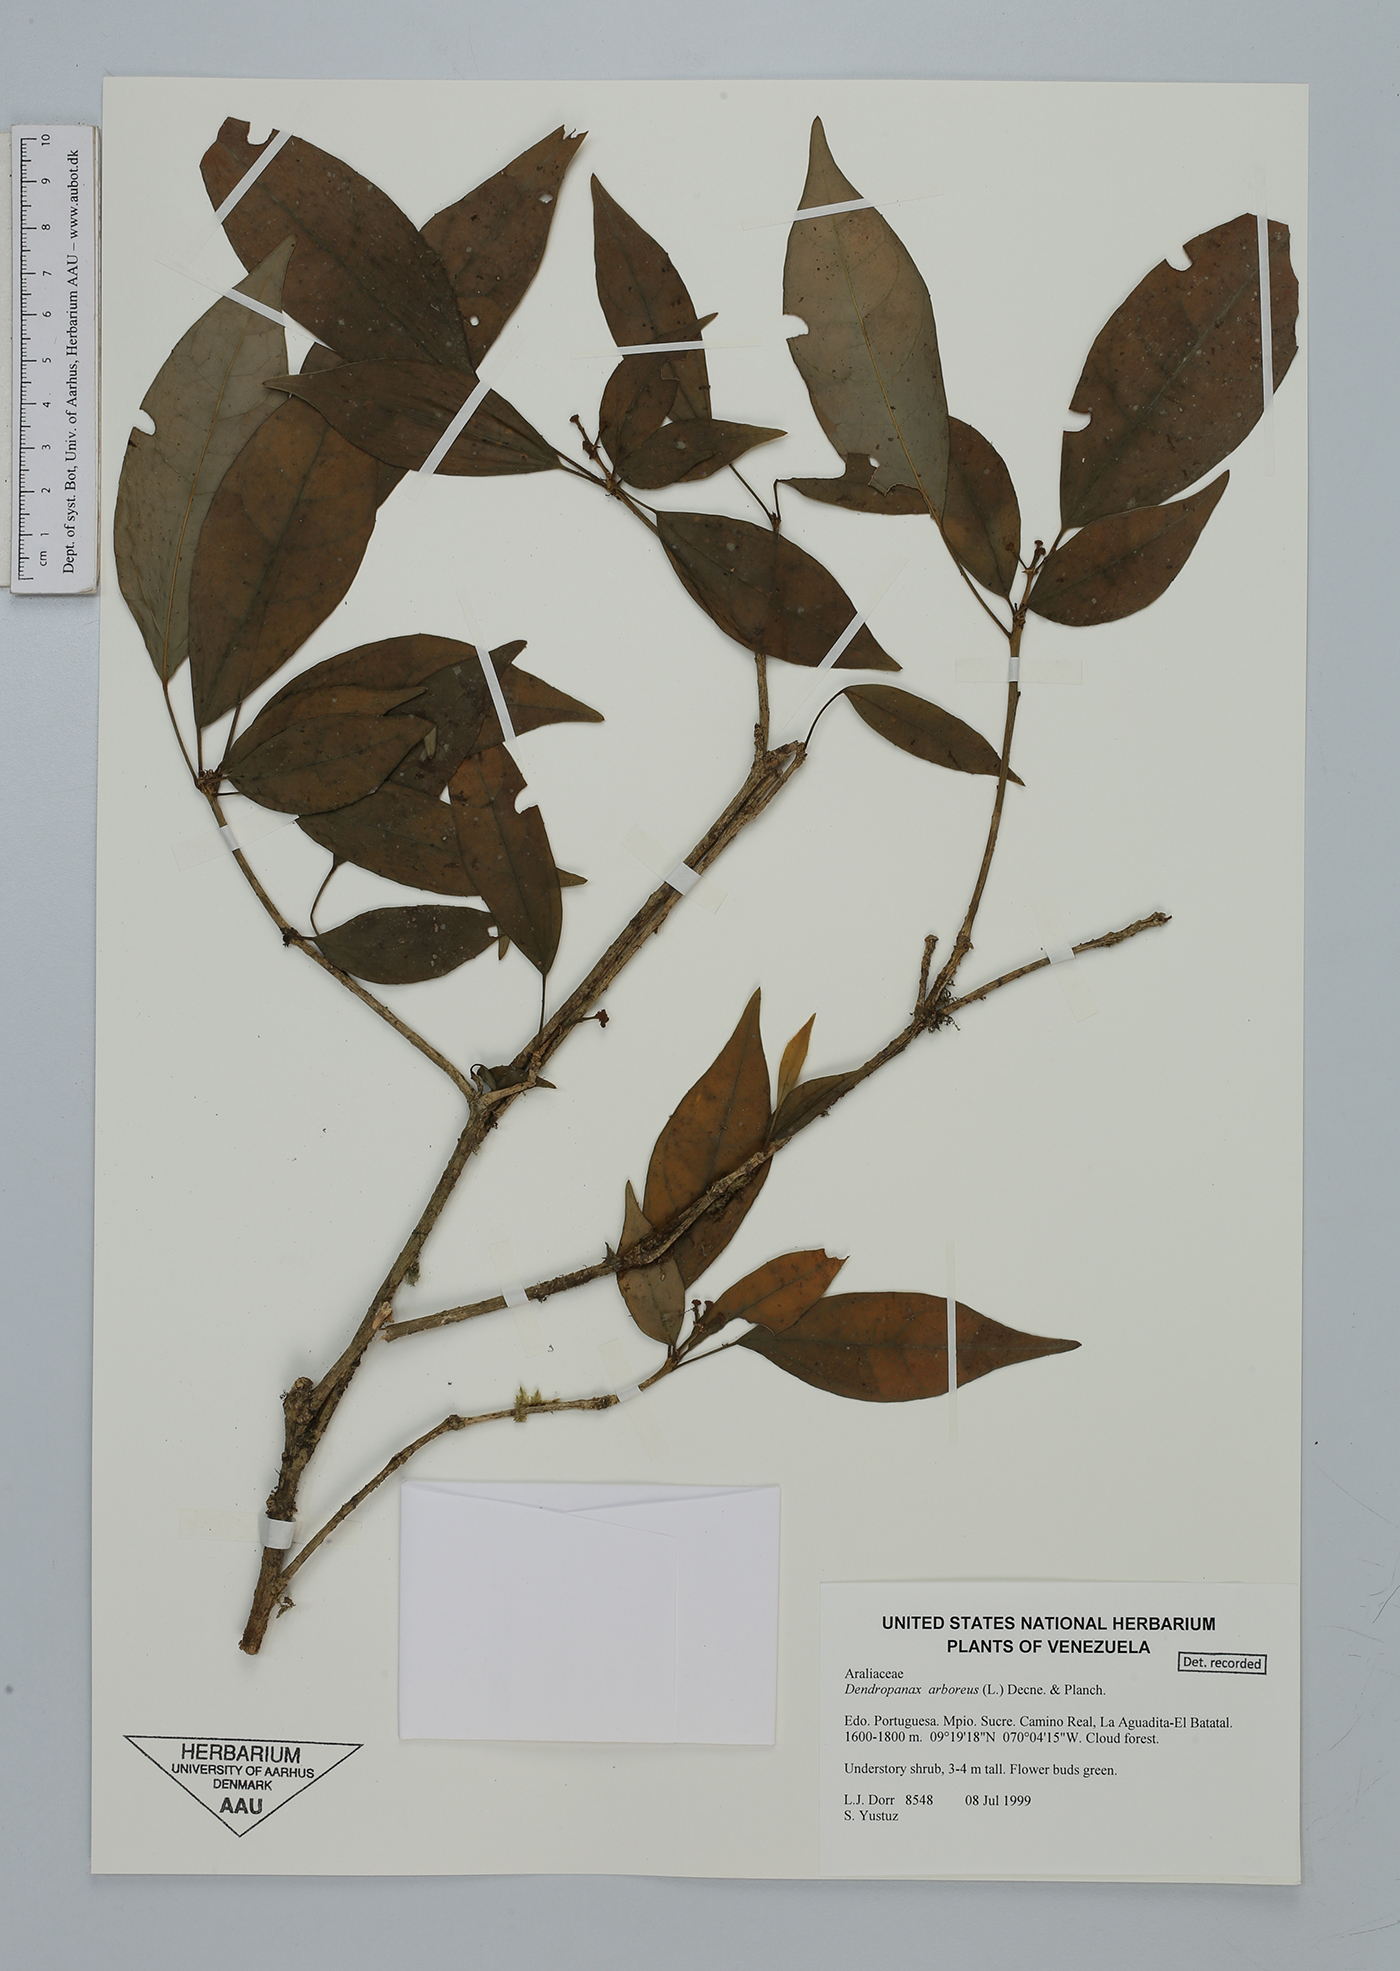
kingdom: Plantae
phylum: Tracheophyta
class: Magnoliopsida
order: Apiales
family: Araliaceae
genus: Dendropanax
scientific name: Dendropanax arboreus
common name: Potato-wood
